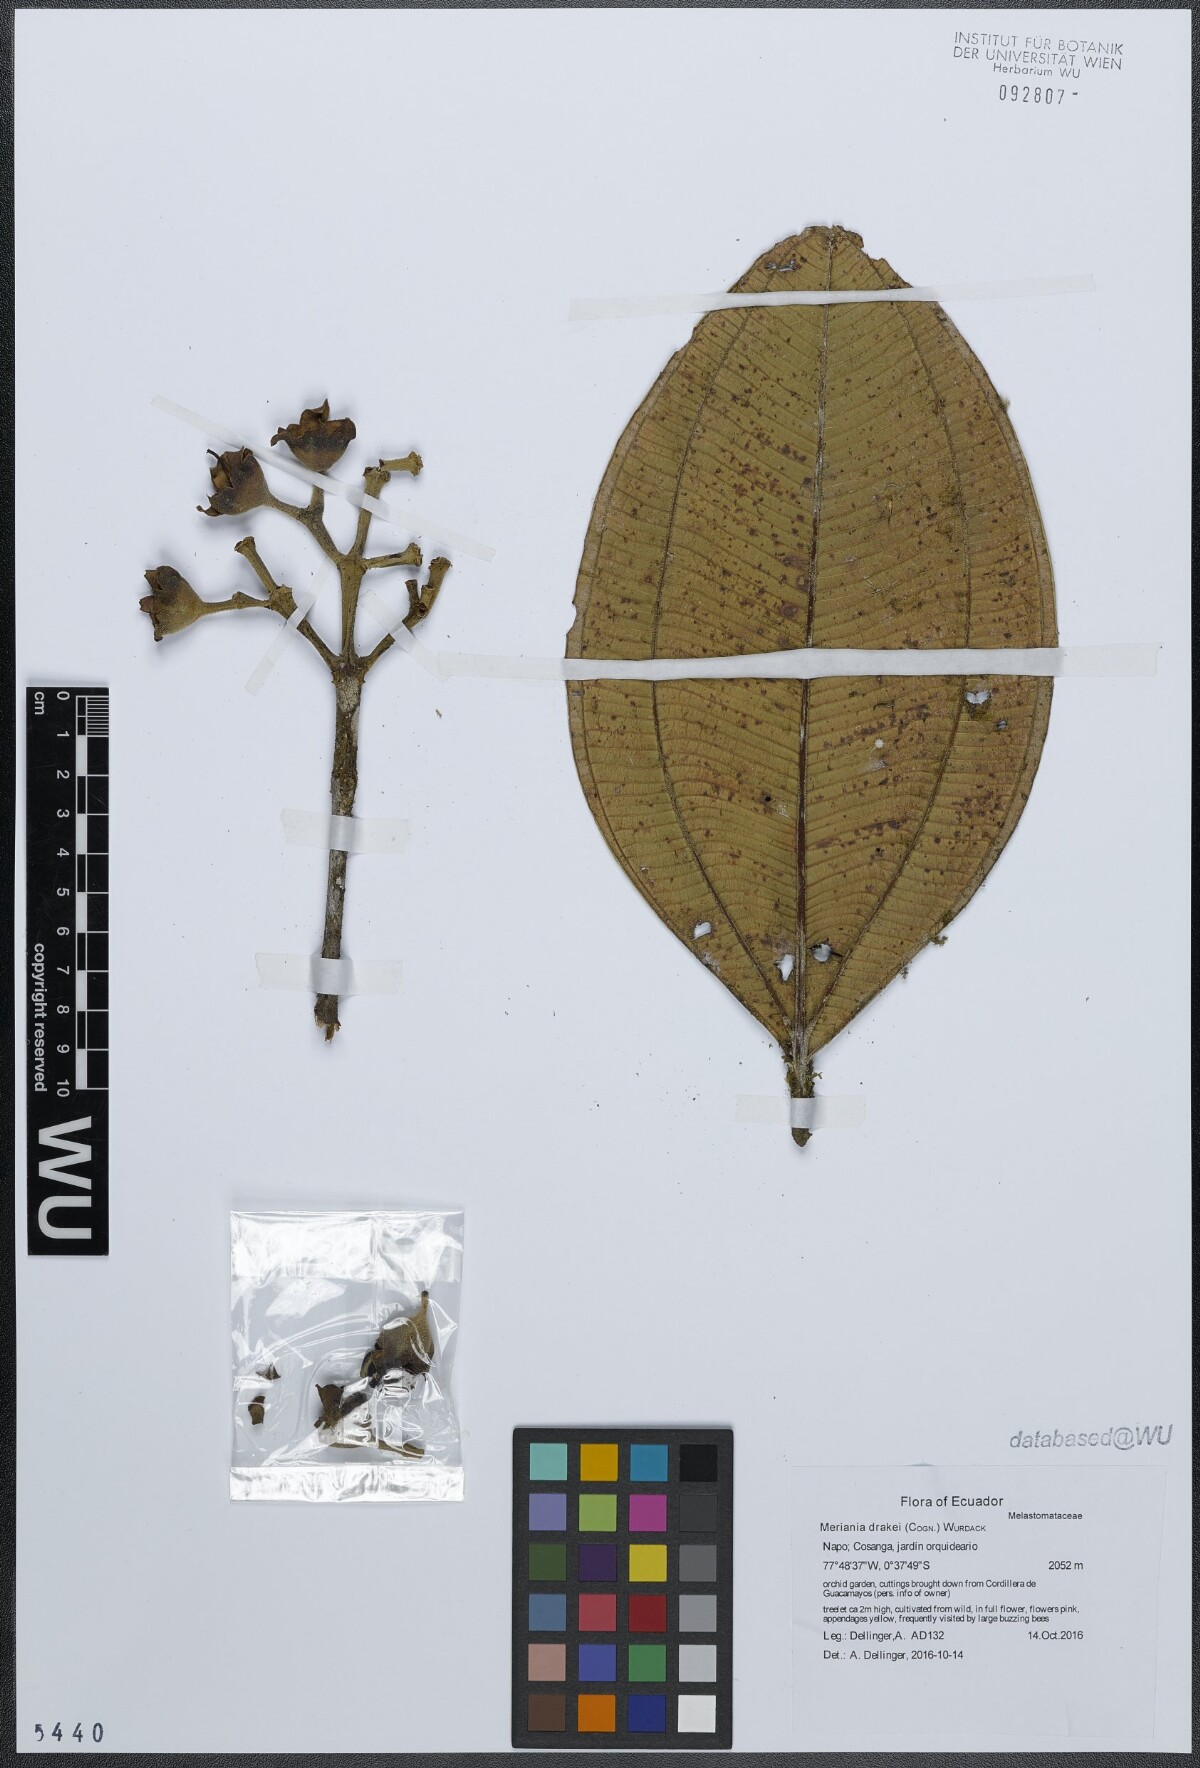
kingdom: Plantae
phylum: Tracheophyta
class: Magnoliopsida
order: Myrtales
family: Melastomataceae
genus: Meriania
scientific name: Meriania drakei
